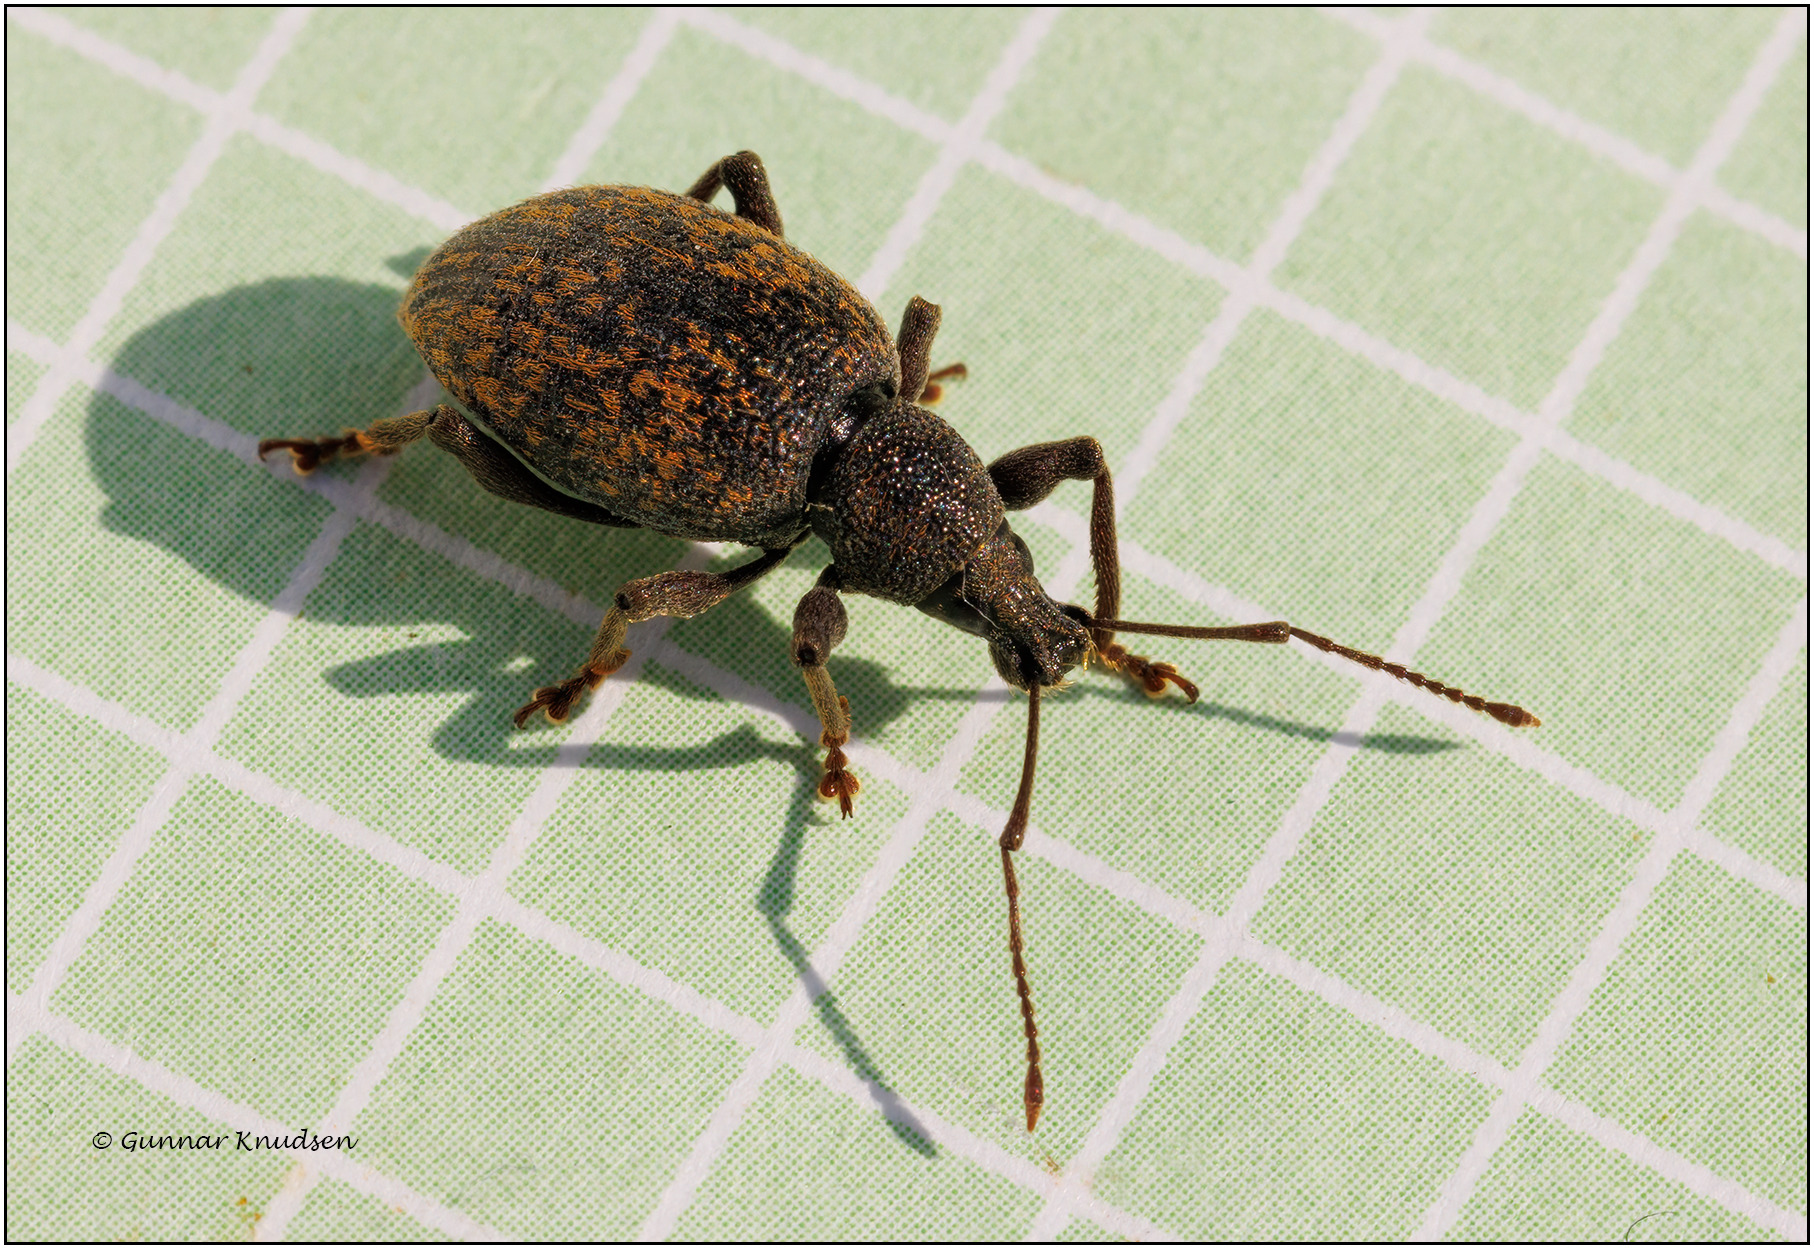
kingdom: Animalia
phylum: Arthropoda
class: Insecta
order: Coleoptera
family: Curculionidae
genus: Otiorhynchus
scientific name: Otiorhynchus aurifer
